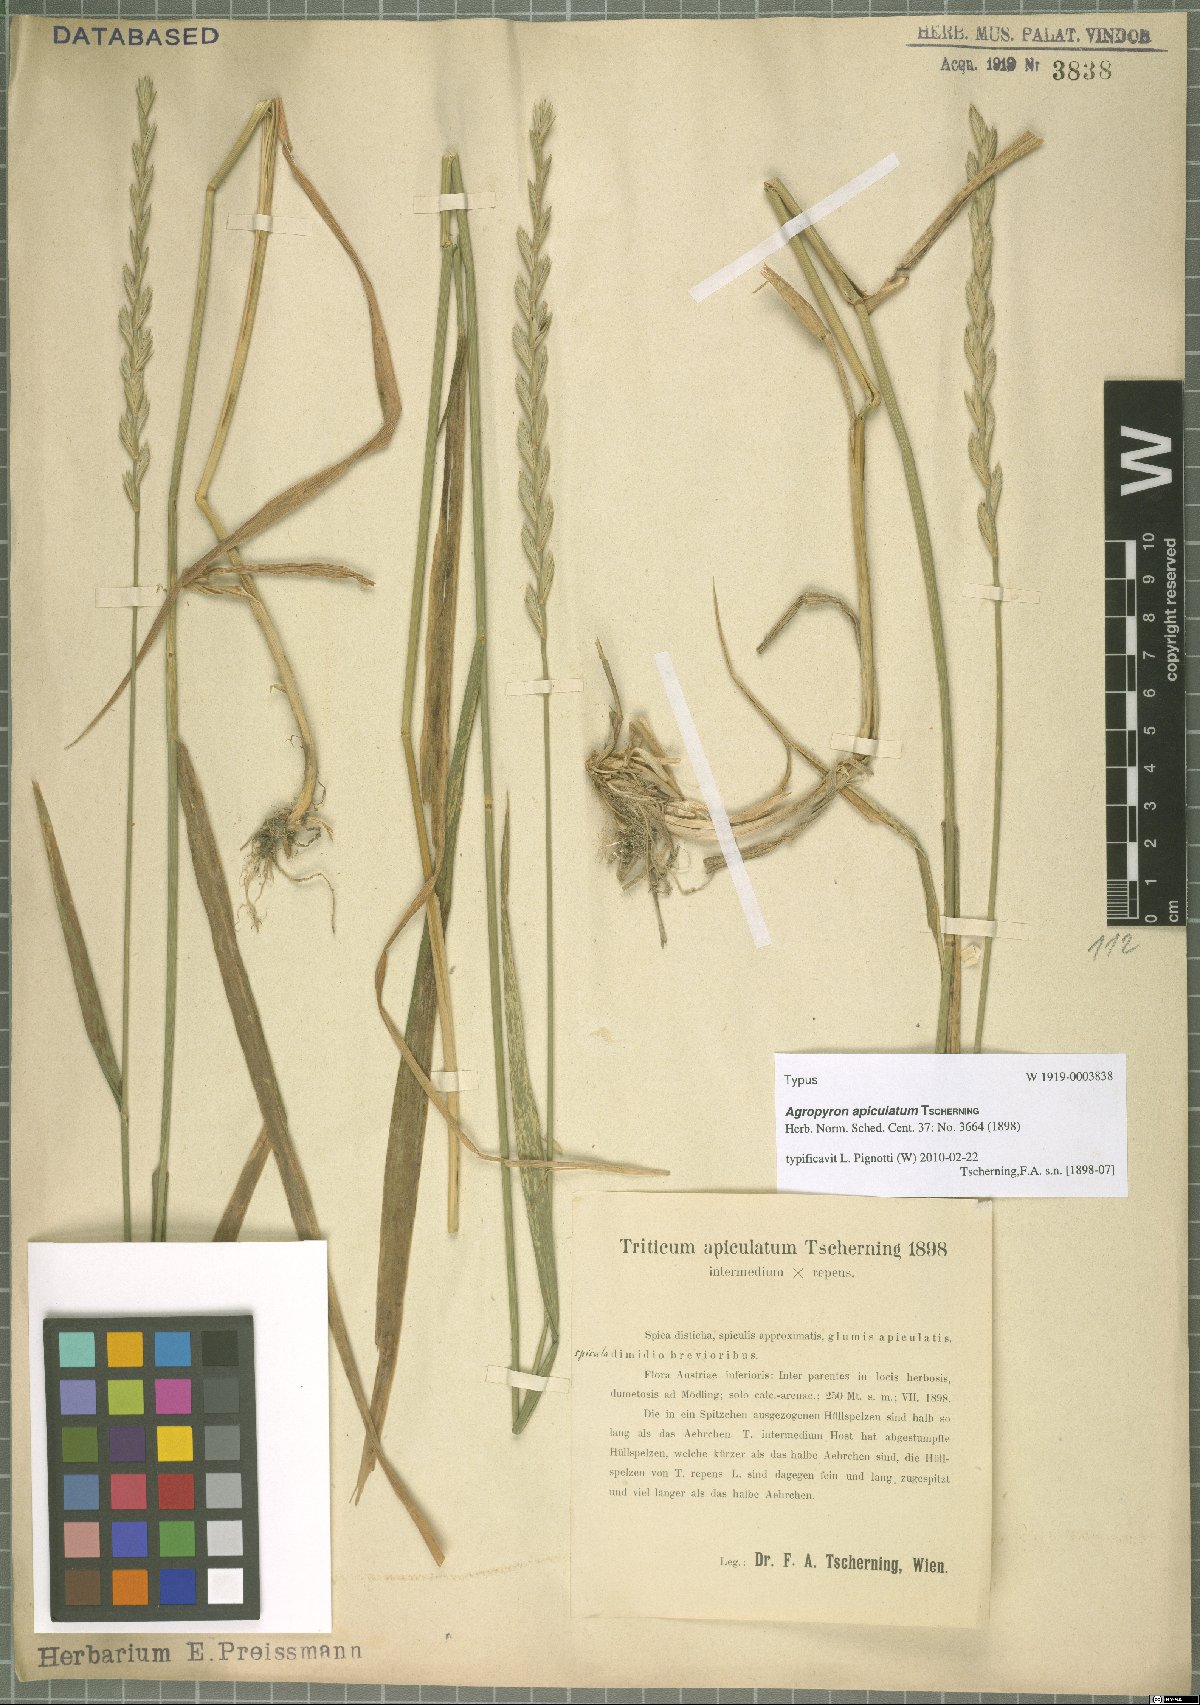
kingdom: Plantae
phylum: Tracheophyta
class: Liliopsida
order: Poales
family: Poaceae
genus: Elymus
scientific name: Elymus apiculatus
